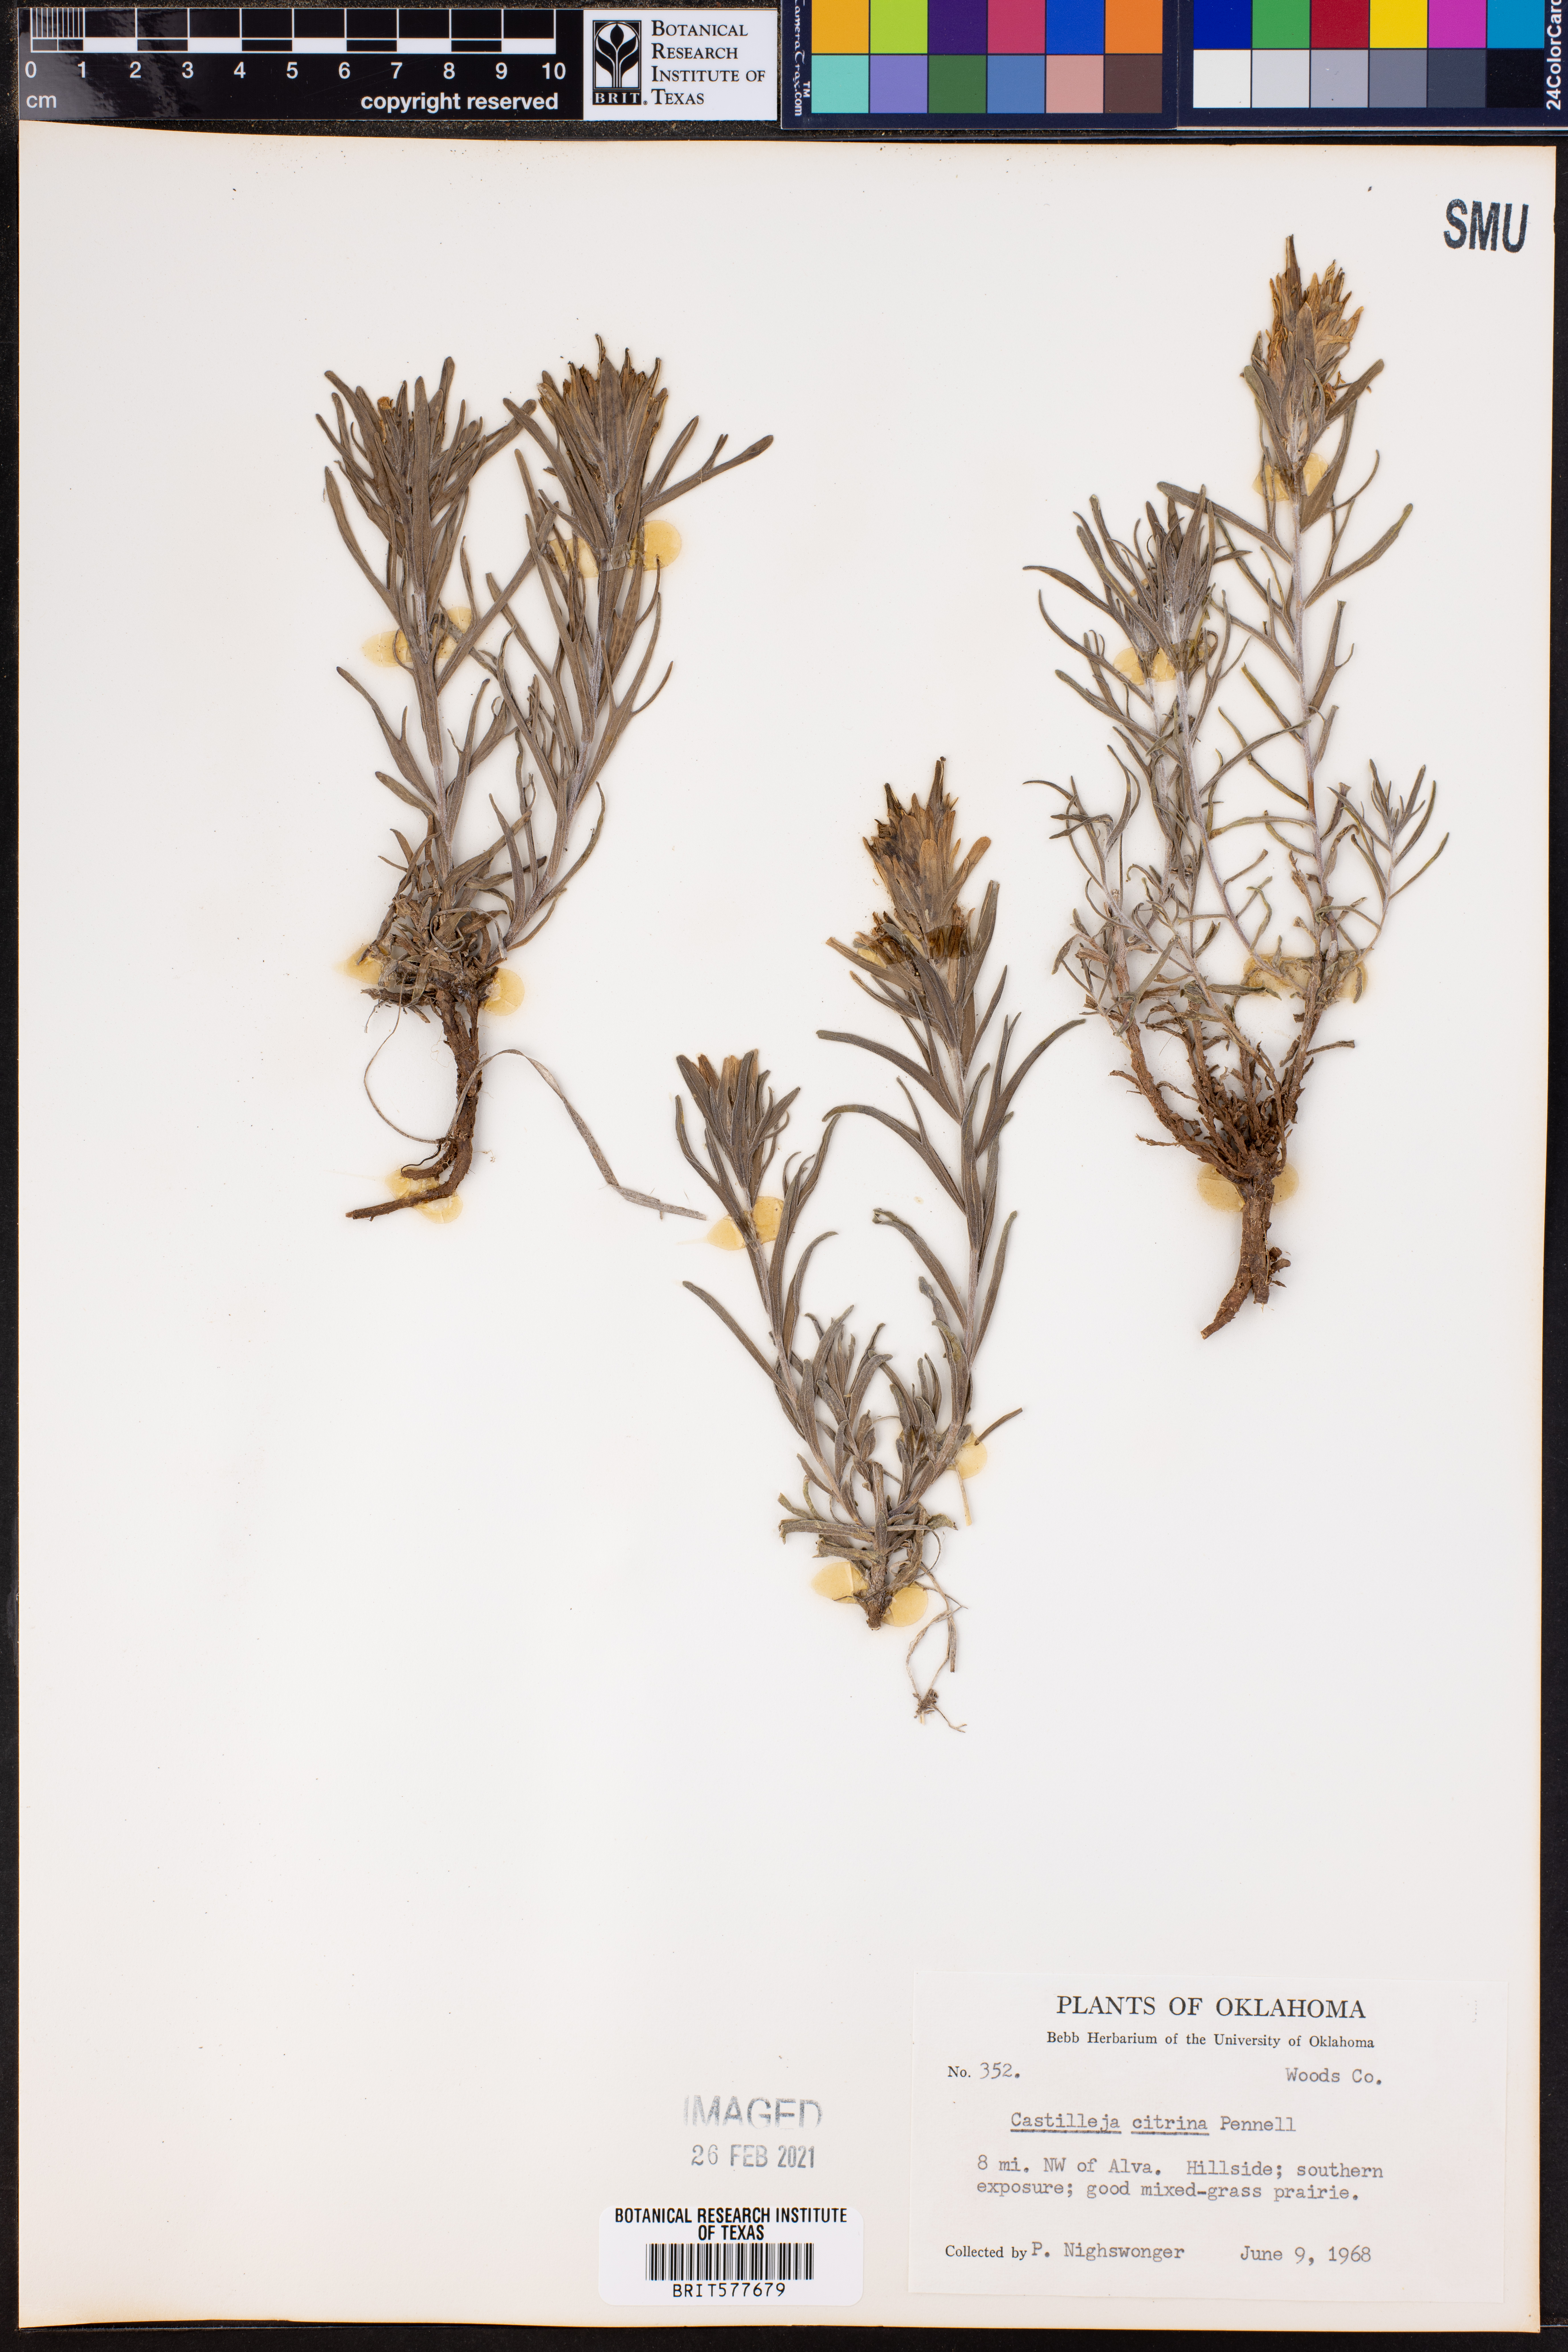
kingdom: Plantae
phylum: Tracheophyta
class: Magnoliopsida
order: Lamiales
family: Orobanchaceae
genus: Castilleja
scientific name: Castilleja citrina
